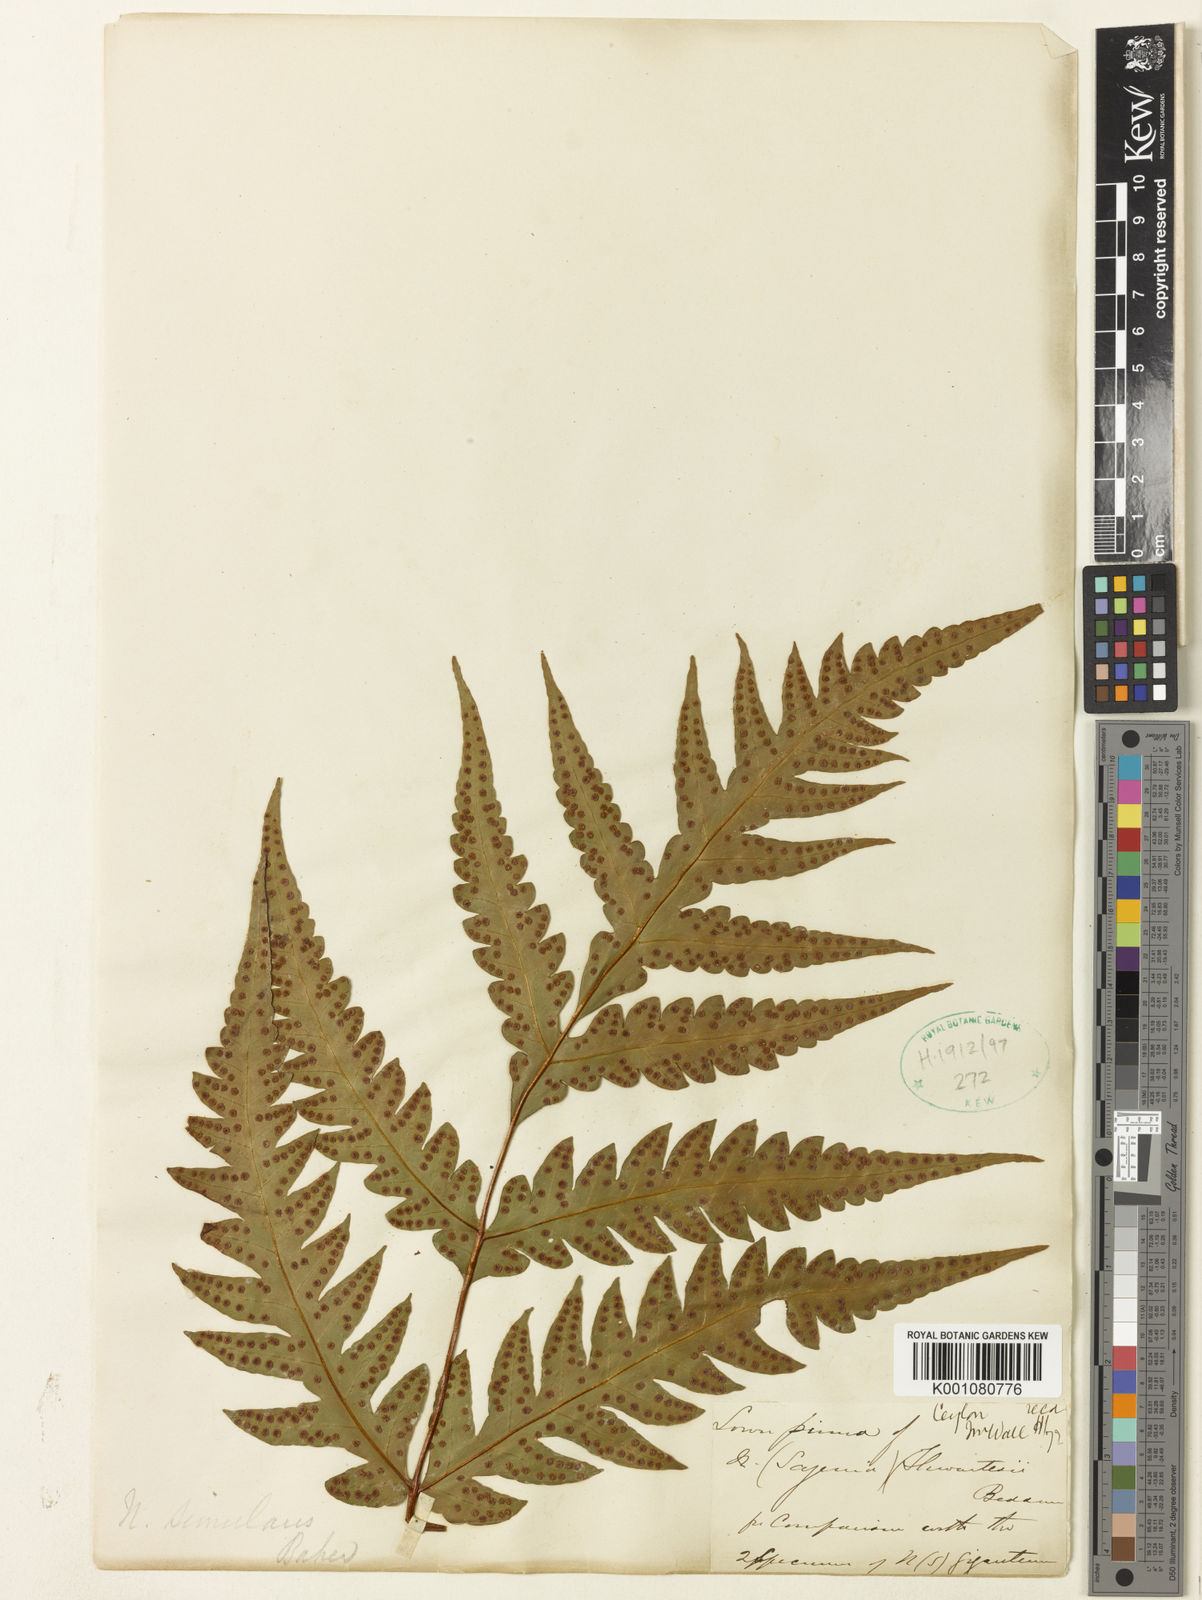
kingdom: Plantae
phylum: Tracheophyta
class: Polypodiopsida
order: Polypodiales
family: Tectariaceae
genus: Tectaria
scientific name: Tectaria thwaitesii
